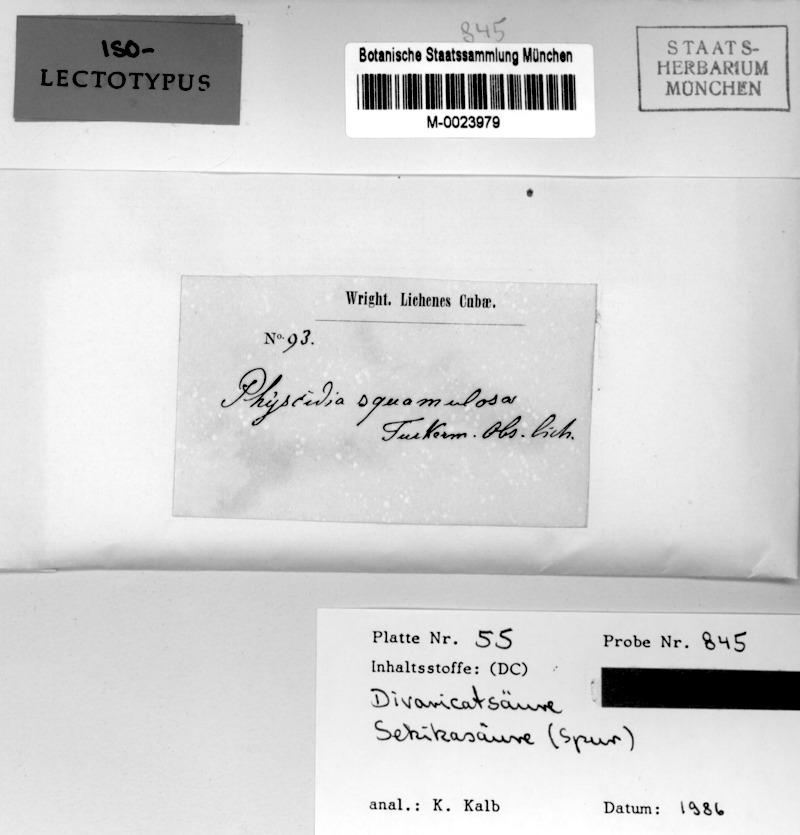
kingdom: Fungi
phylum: Ascomycota
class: Lecanoromycetes
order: Lecanorales
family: Ramalinaceae
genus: Physcidia
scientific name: Physcidia squamulosa
